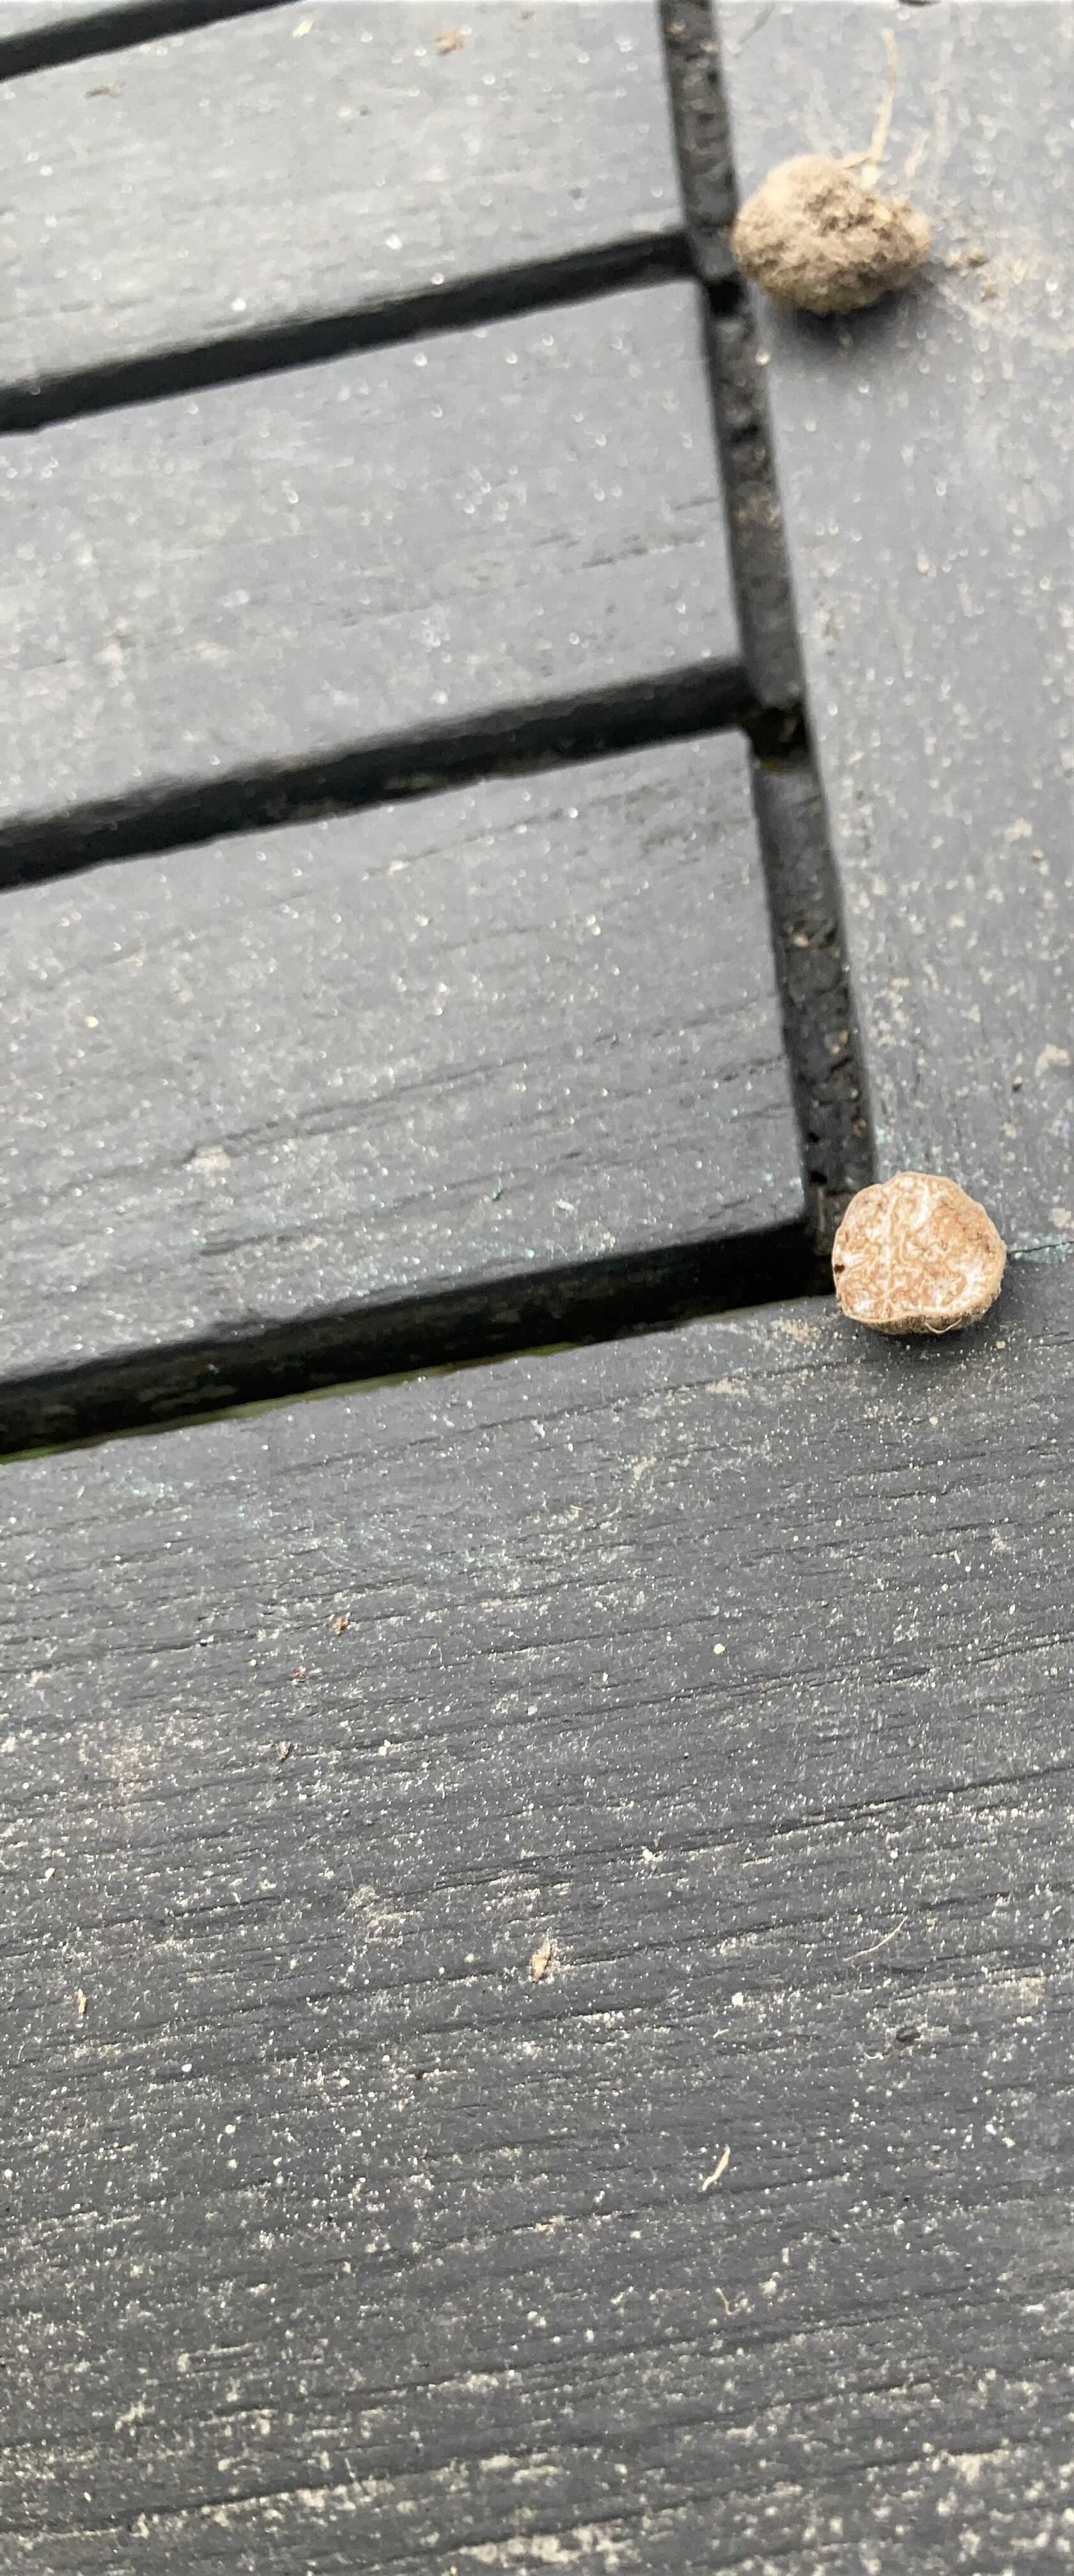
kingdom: Fungi
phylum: Ascomycota
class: Pezizomycetes
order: Pezizales
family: Tuberaceae
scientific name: Tuberaceae
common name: trøffelfamilien
